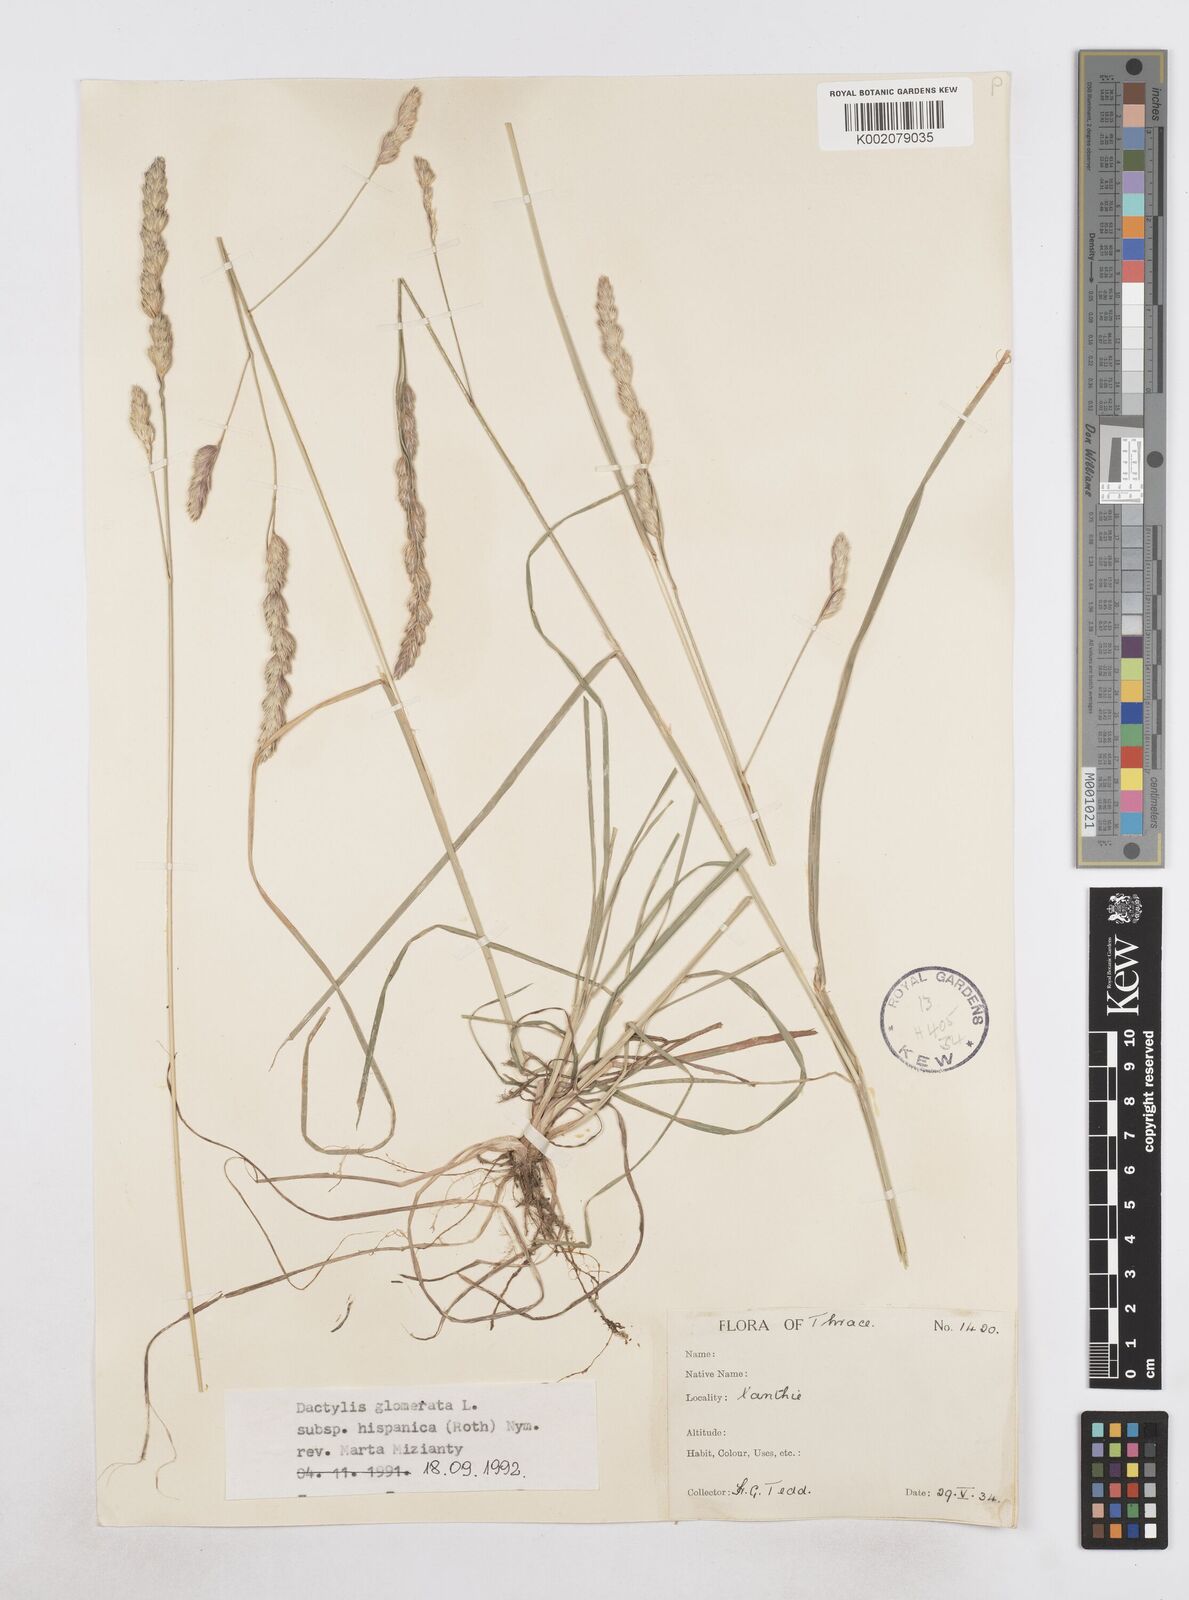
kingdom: Plantae
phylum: Tracheophyta
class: Liliopsida
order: Poales
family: Poaceae
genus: Dactylis
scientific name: Dactylis glomerata
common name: Orchardgrass
